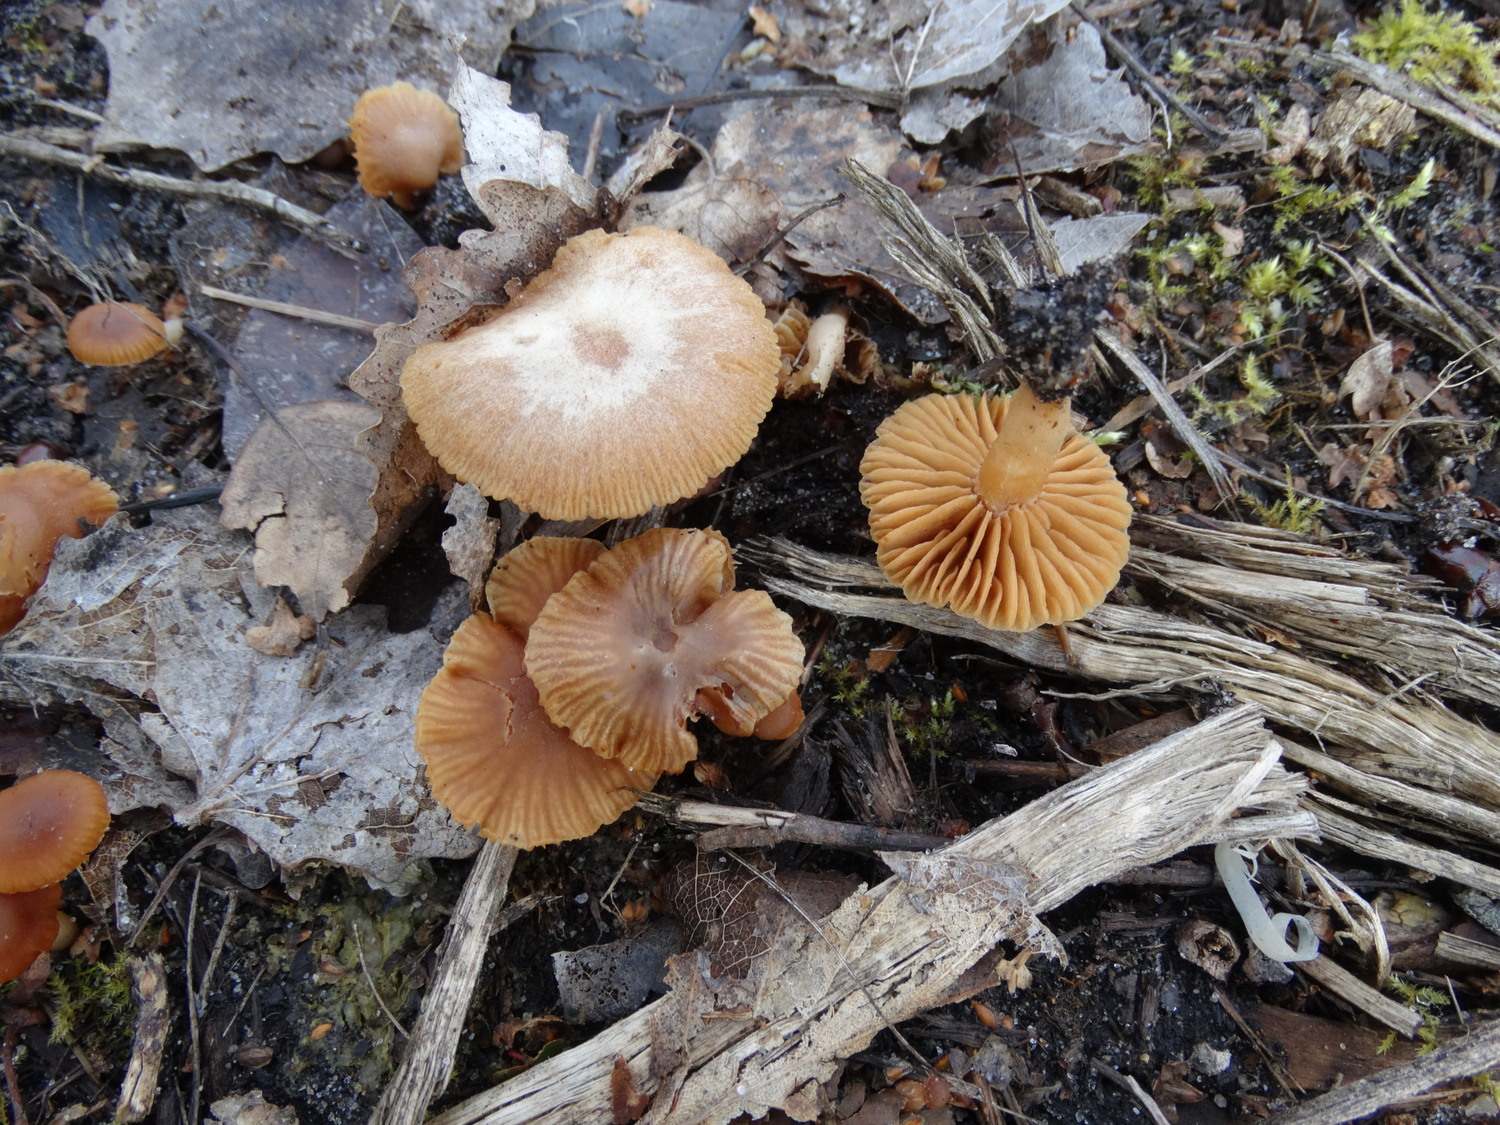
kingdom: Fungi
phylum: Basidiomycota
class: Agaricomycetes
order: Agaricales
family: Tubariaceae
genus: Tubaria
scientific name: Tubaria furfuracea
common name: kliddet fnughat
